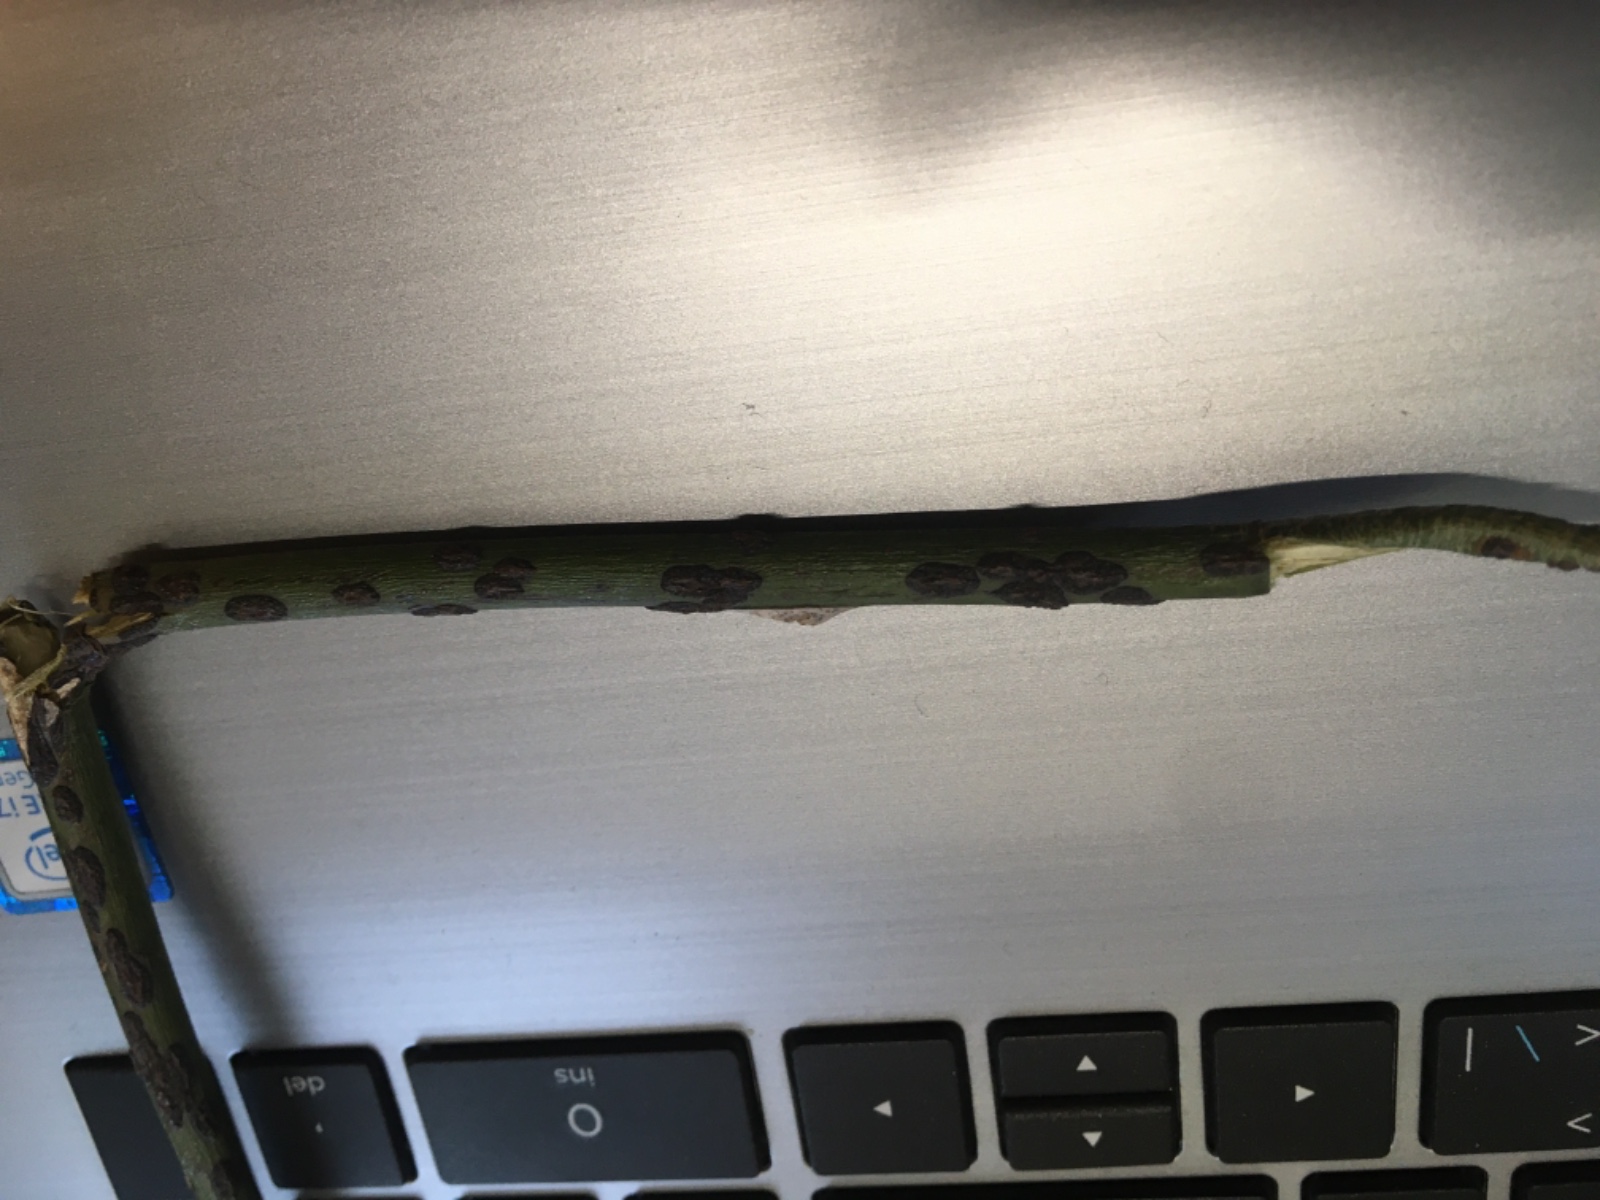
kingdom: Fungi
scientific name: Fungi
